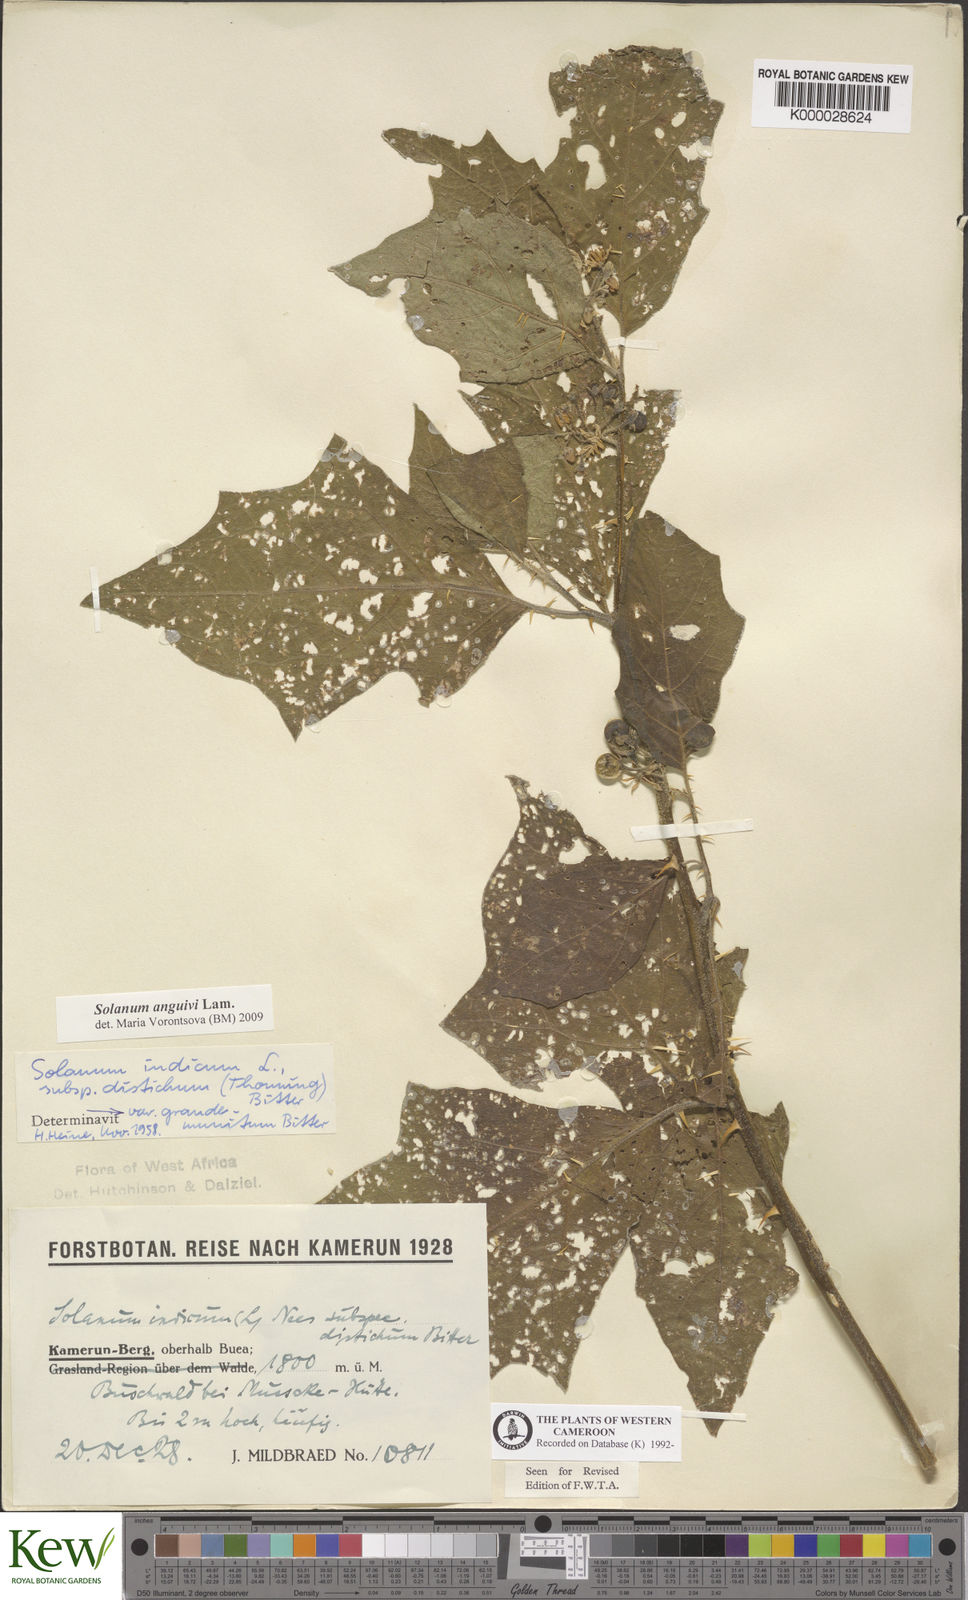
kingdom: Plantae
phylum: Tracheophyta
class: Magnoliopsida
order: Solanales
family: Solanaceae
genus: Solanum
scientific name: Solanum violaceum
